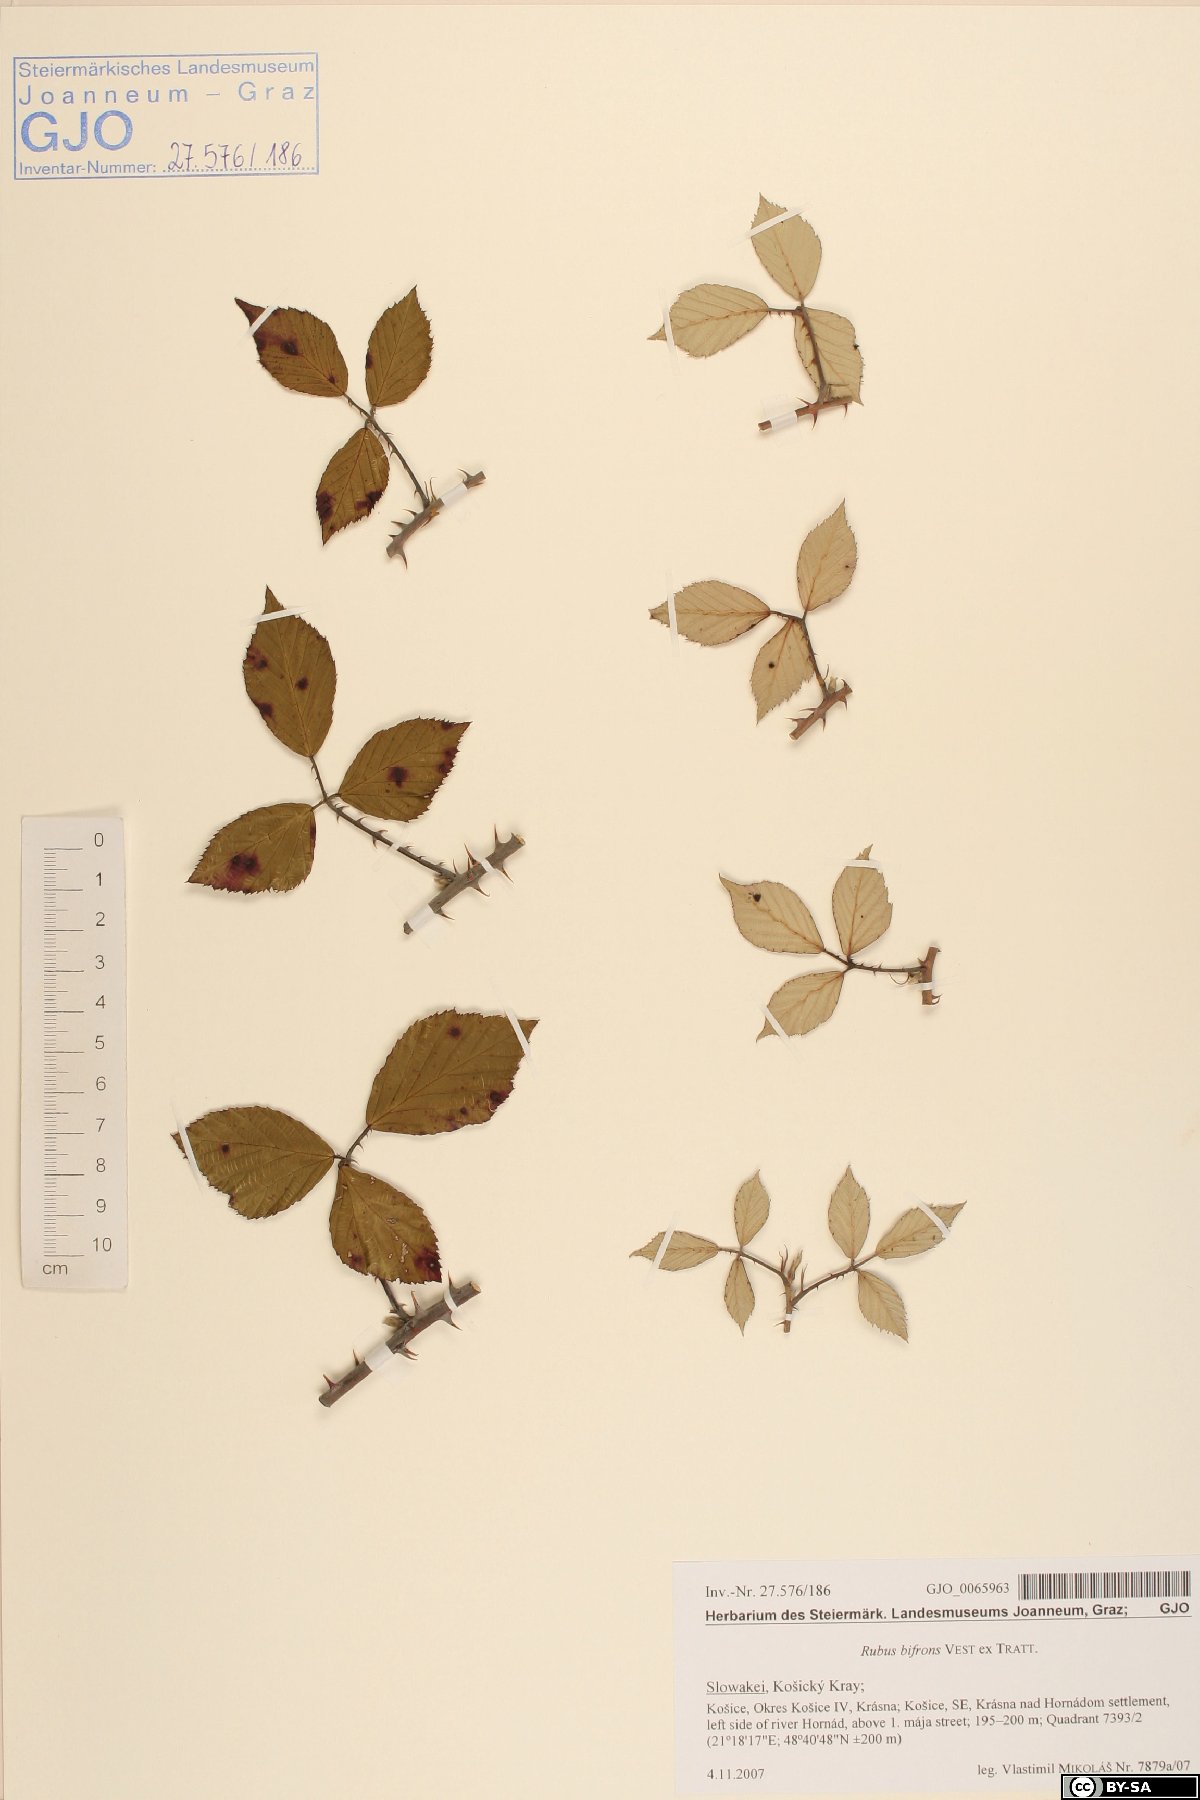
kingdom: Plantae
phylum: Tracheophyta
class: Magnoliopsida
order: Rosales
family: Rosaceae
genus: Rubus
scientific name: Rubus bifrons
